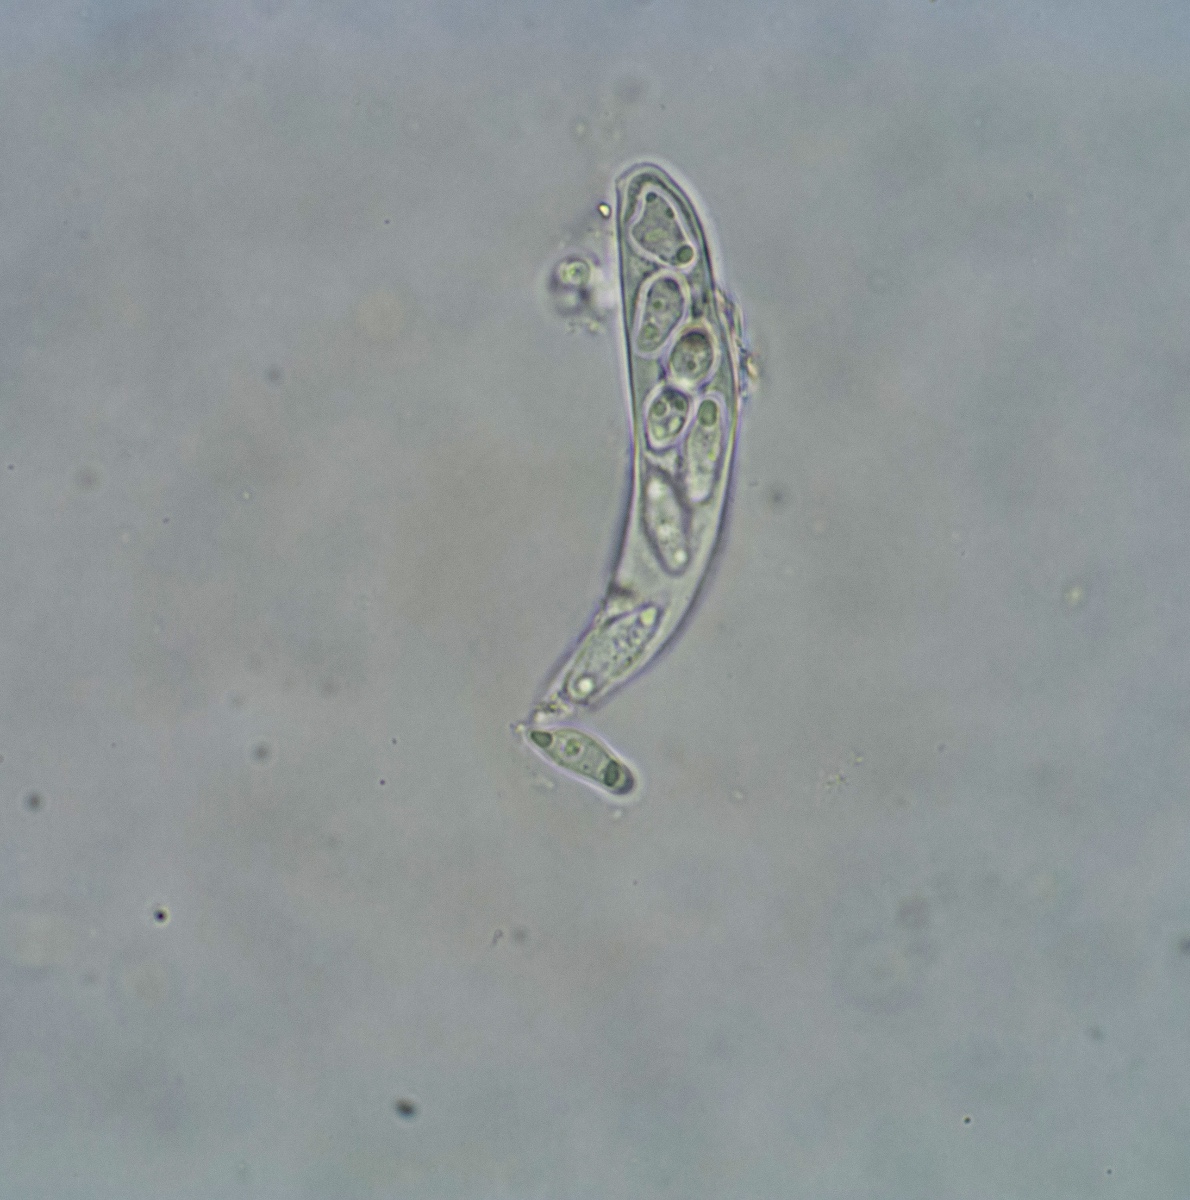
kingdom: Fungi
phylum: Ascomycota
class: Leotiomycetes
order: Helotiales
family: Drepanopezizaceae
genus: Pseudopeziza
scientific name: Pseudopeziza medicaginis
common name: sneglebælg-bladskive
